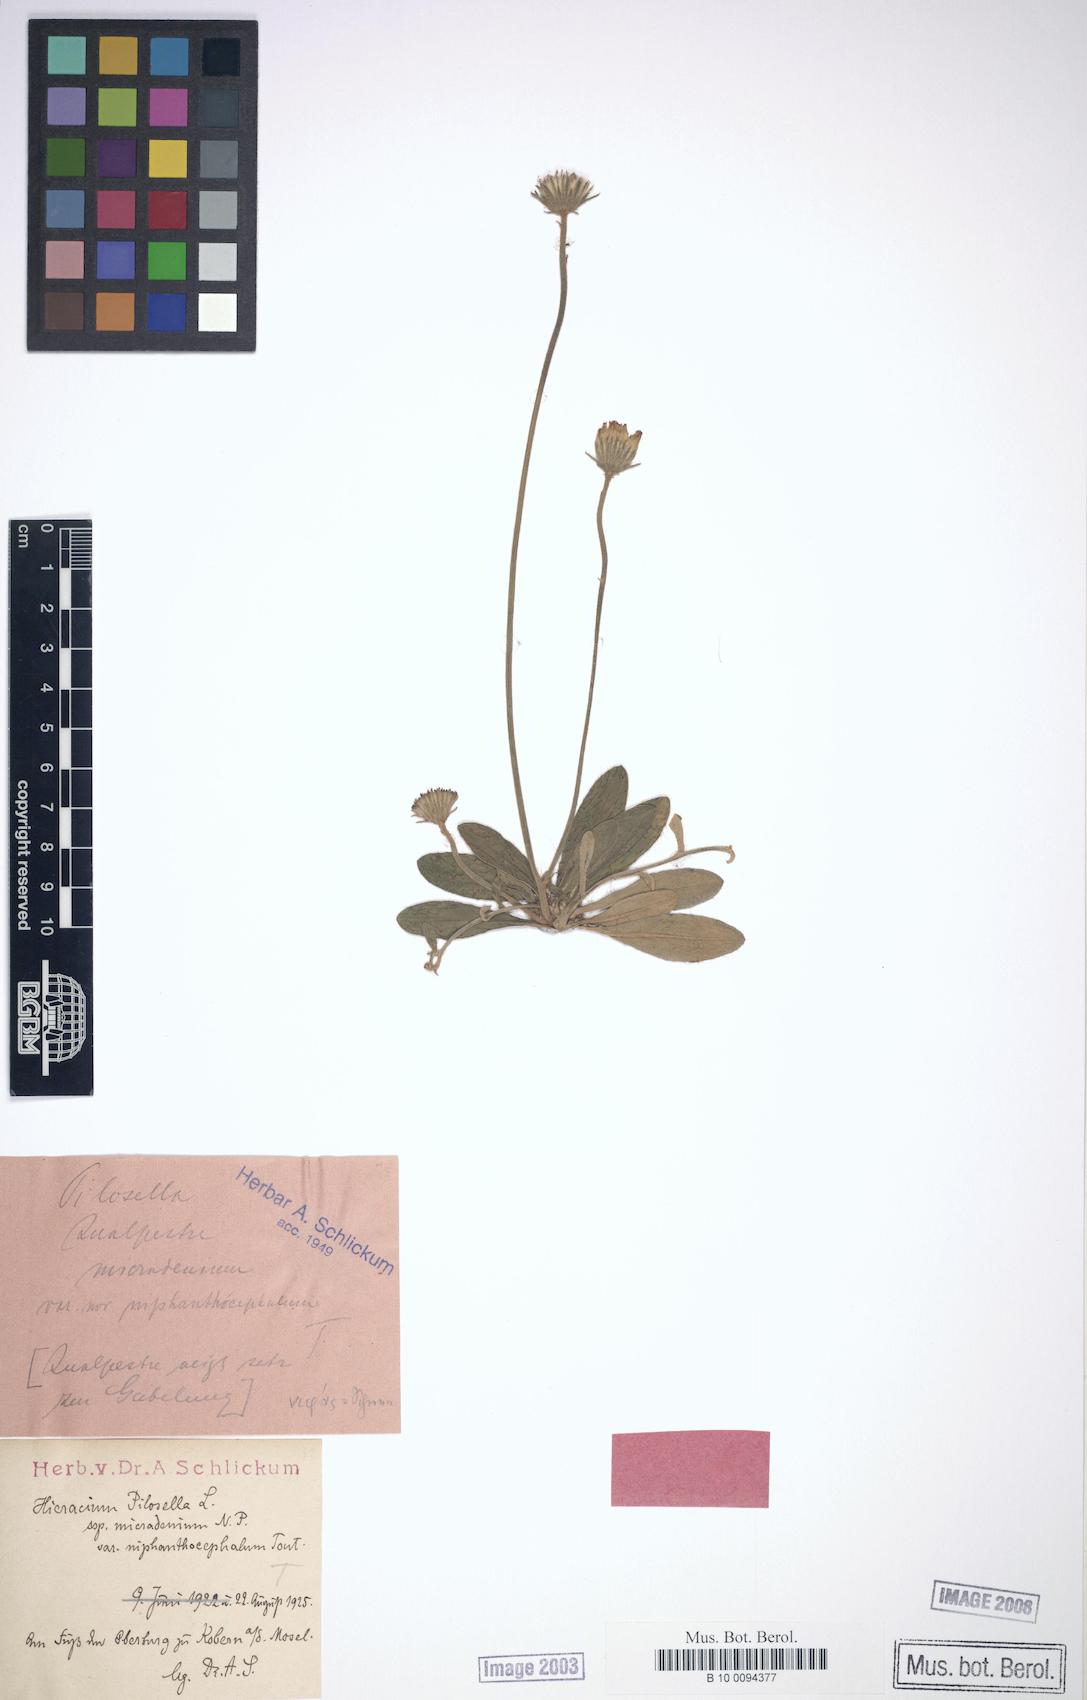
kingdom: Plantae
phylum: Tracheophyta
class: Magnoliopsida
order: Asterales
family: Asteraceae
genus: Pilosella
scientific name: Pilosella officinarum
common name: Mouse-ear hawkweed
